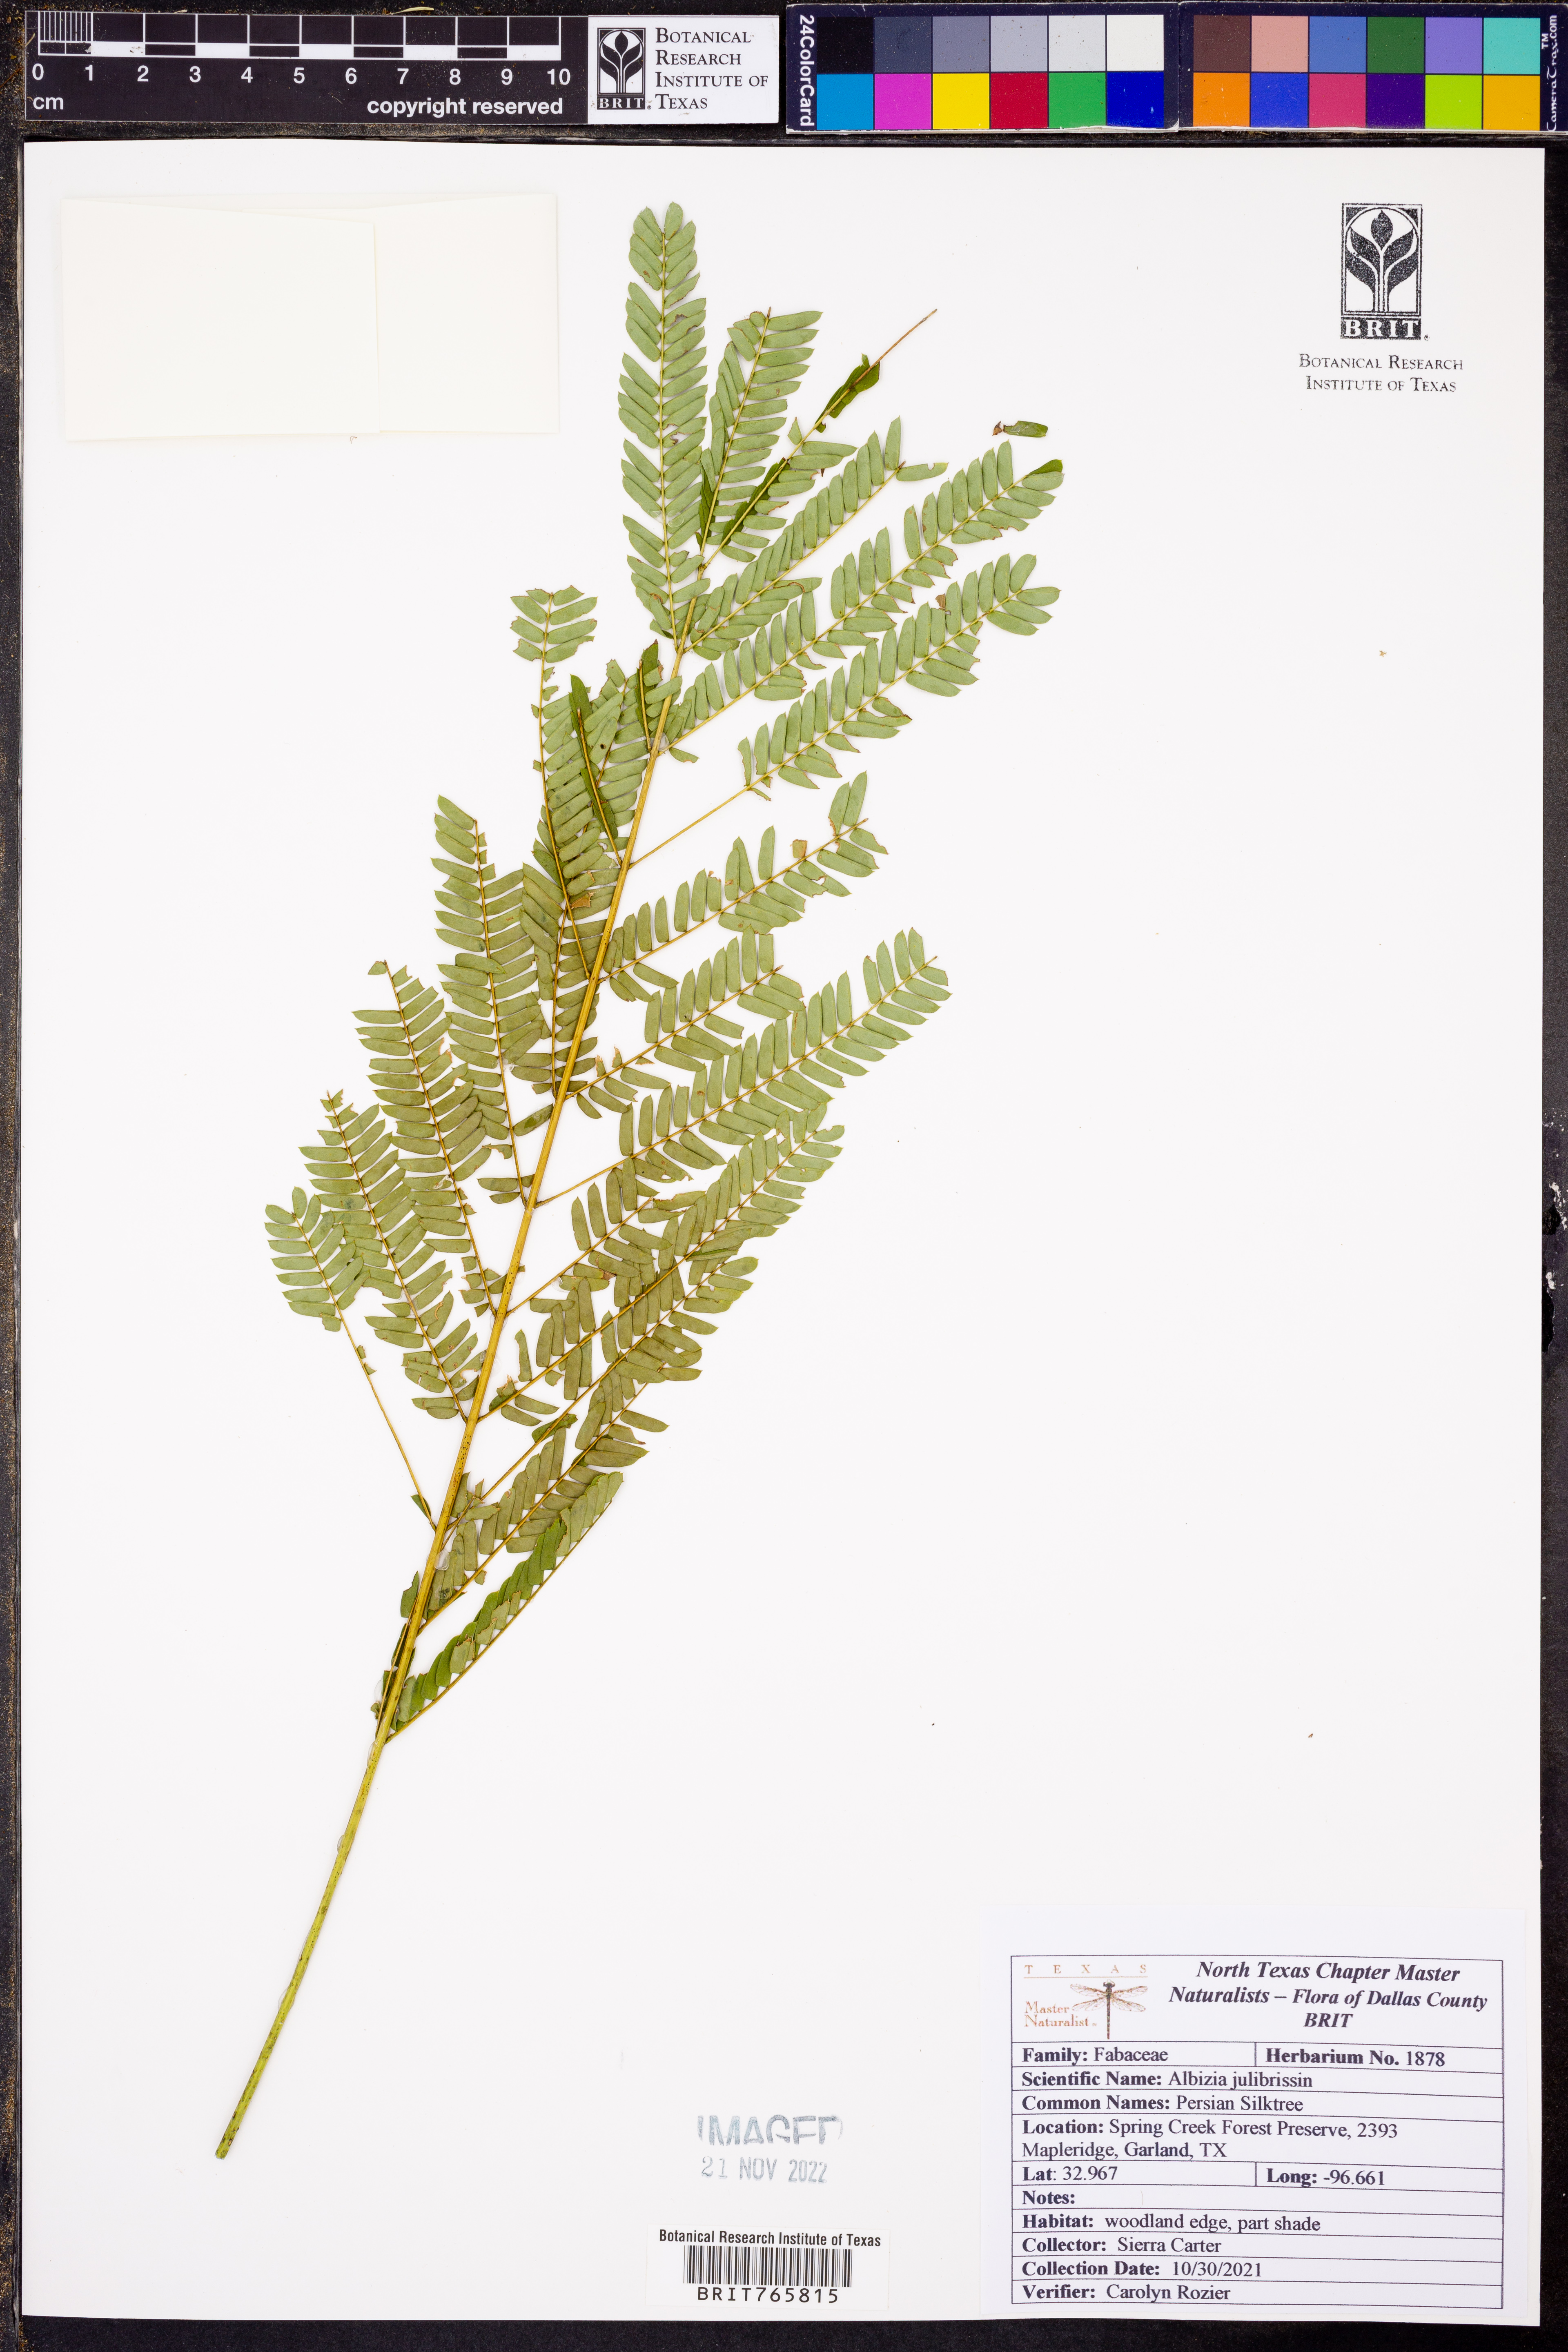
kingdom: Plantae
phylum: Tracheophyta
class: Magnoliopsida
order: Fabales
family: Fabaceae
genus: Albizia
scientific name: Albizia julibrissin
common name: Silktree
